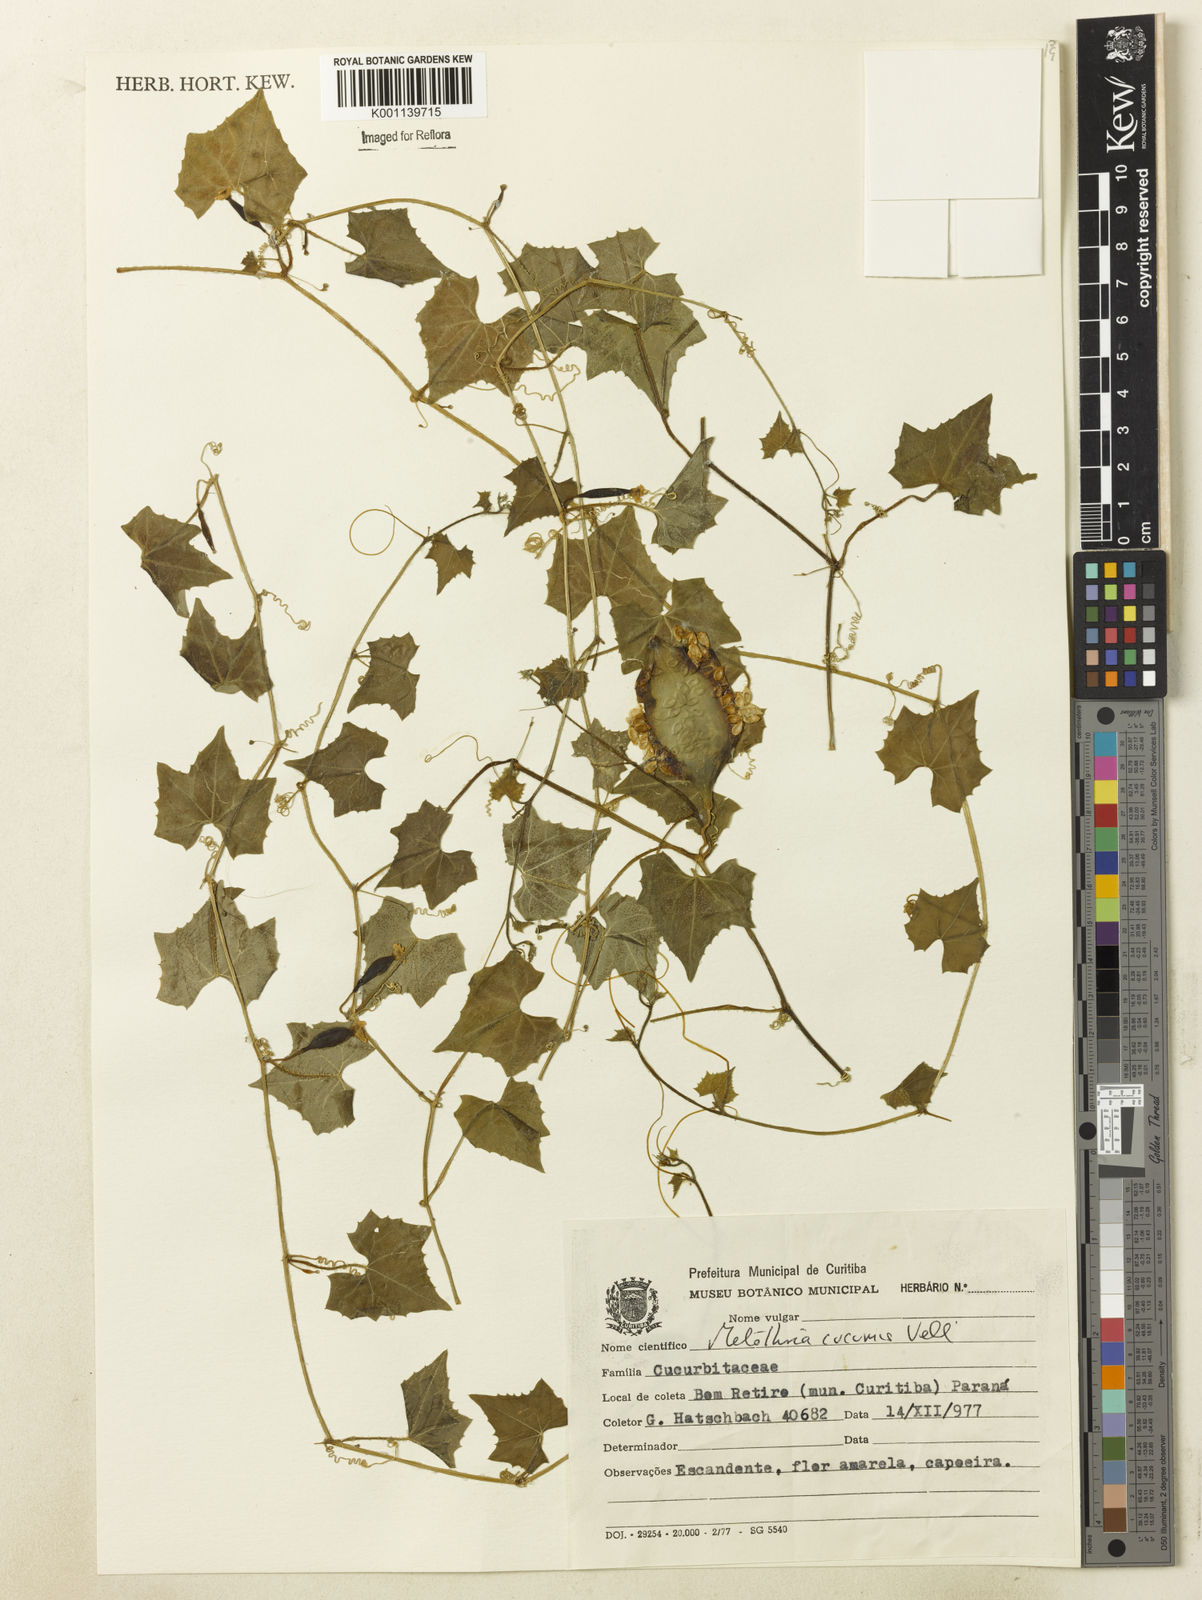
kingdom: Plantae
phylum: Tracheophyta
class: Magnoliopsida
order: Cucurbitales
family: Cucurbitaceae
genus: Melothria
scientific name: Melothria cucumis
